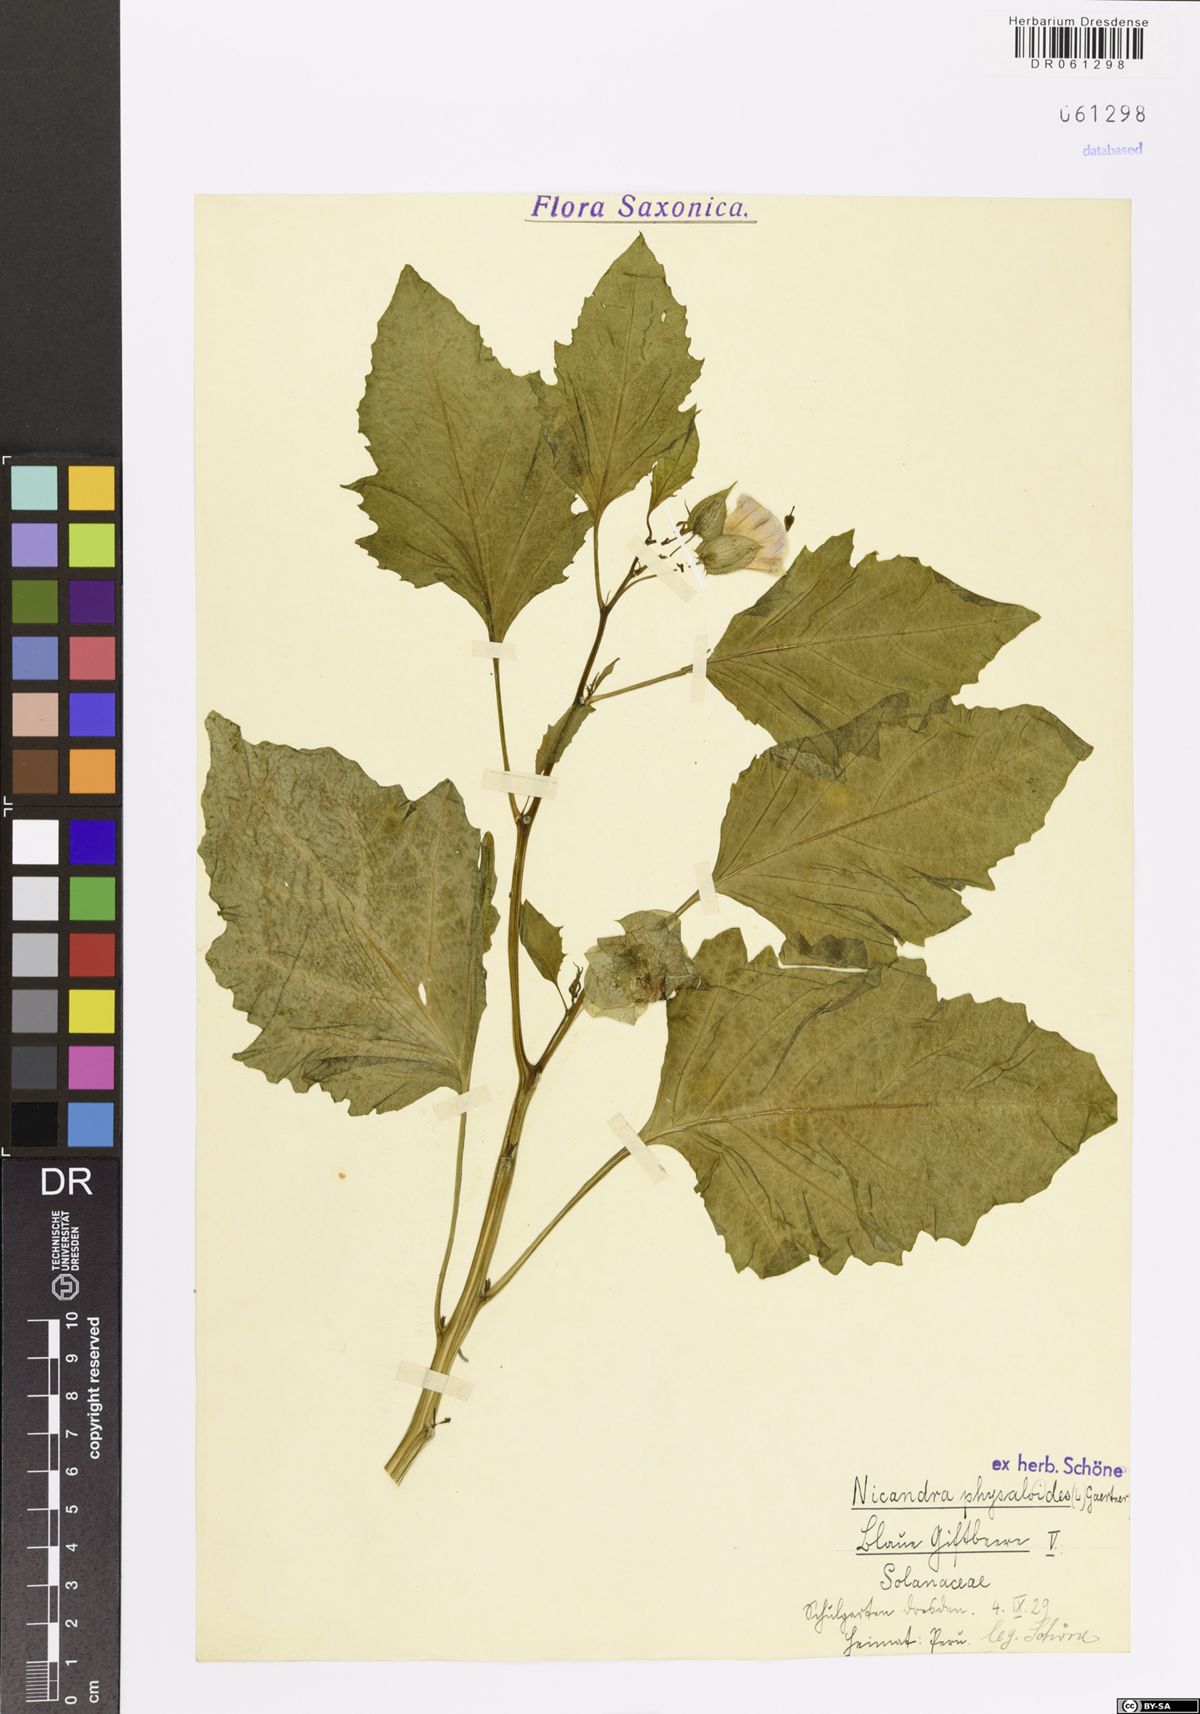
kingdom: Plantae
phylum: Tracheophyta
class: Magnoliopsida
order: Solanales
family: Solanaceae
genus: Nicandra
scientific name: Nicandra physalodes
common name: Apple-of-peru
